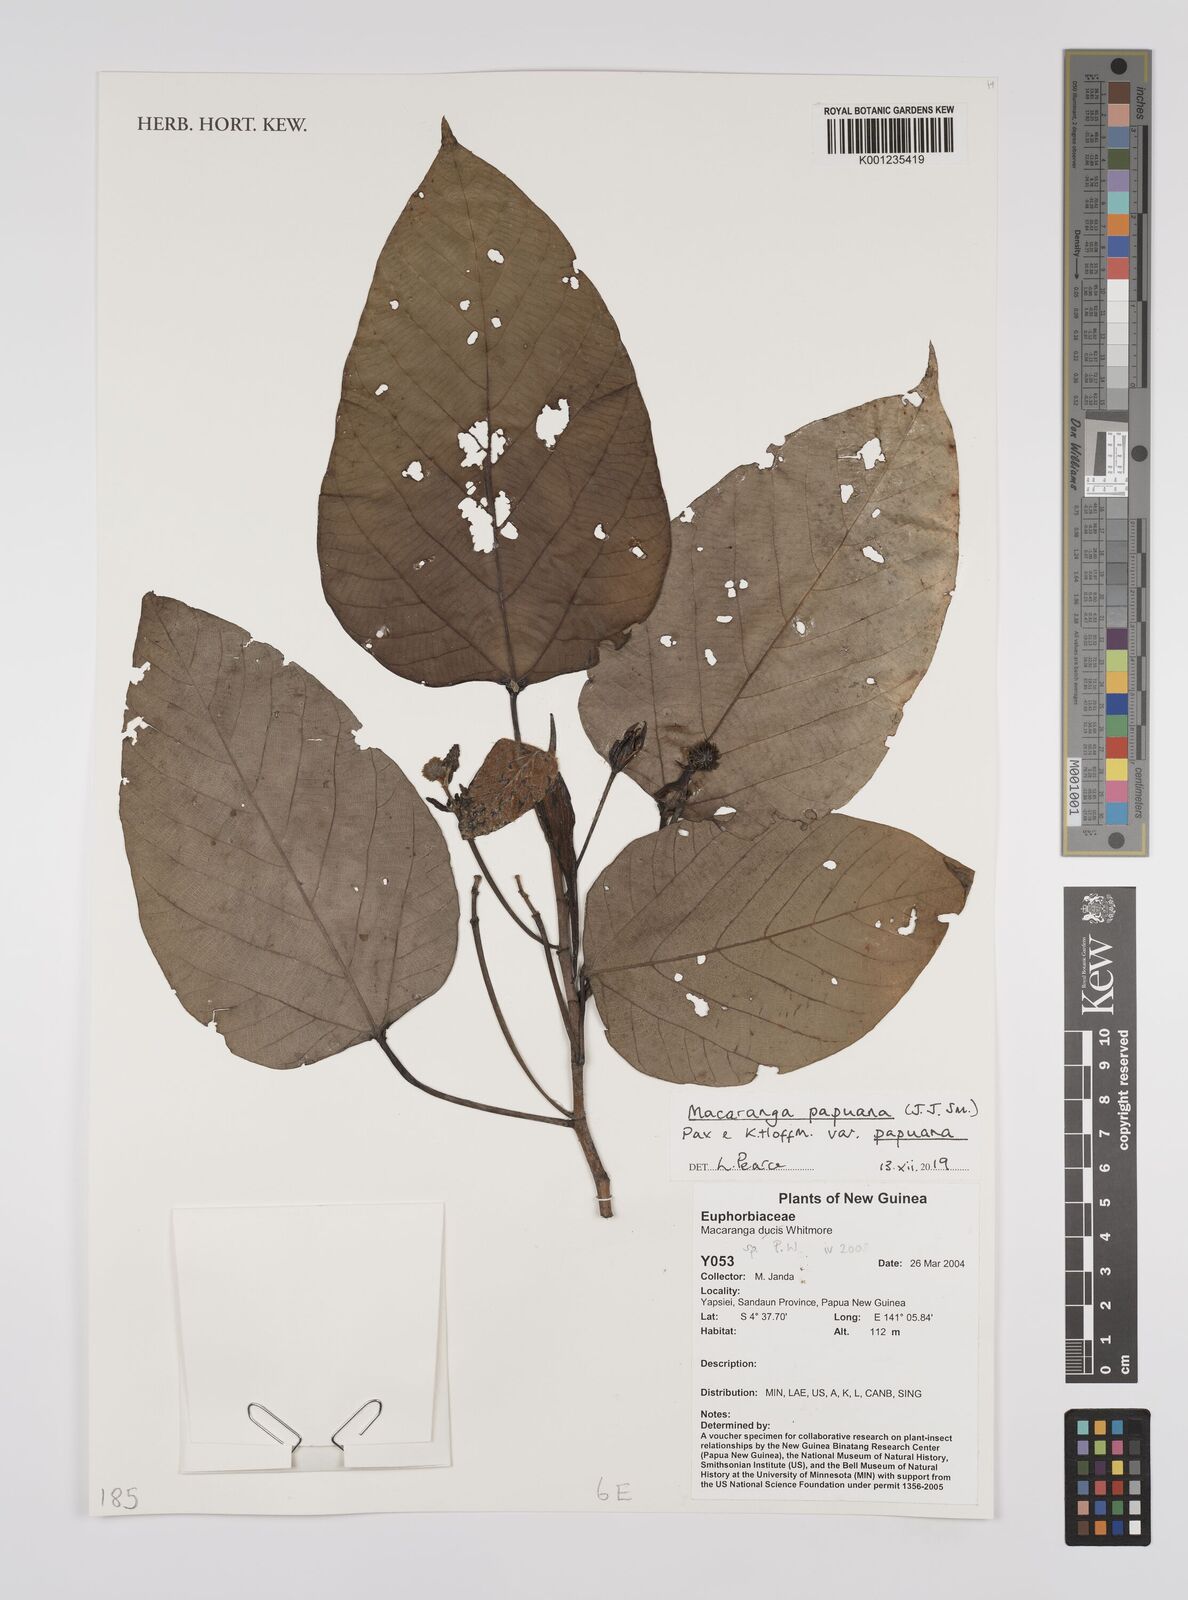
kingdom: Plantae
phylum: Tracheophyta
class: Magnoliopsida
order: Malpighiales
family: Euphorbiaceae
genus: Macaranga
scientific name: Macaranga papuana
